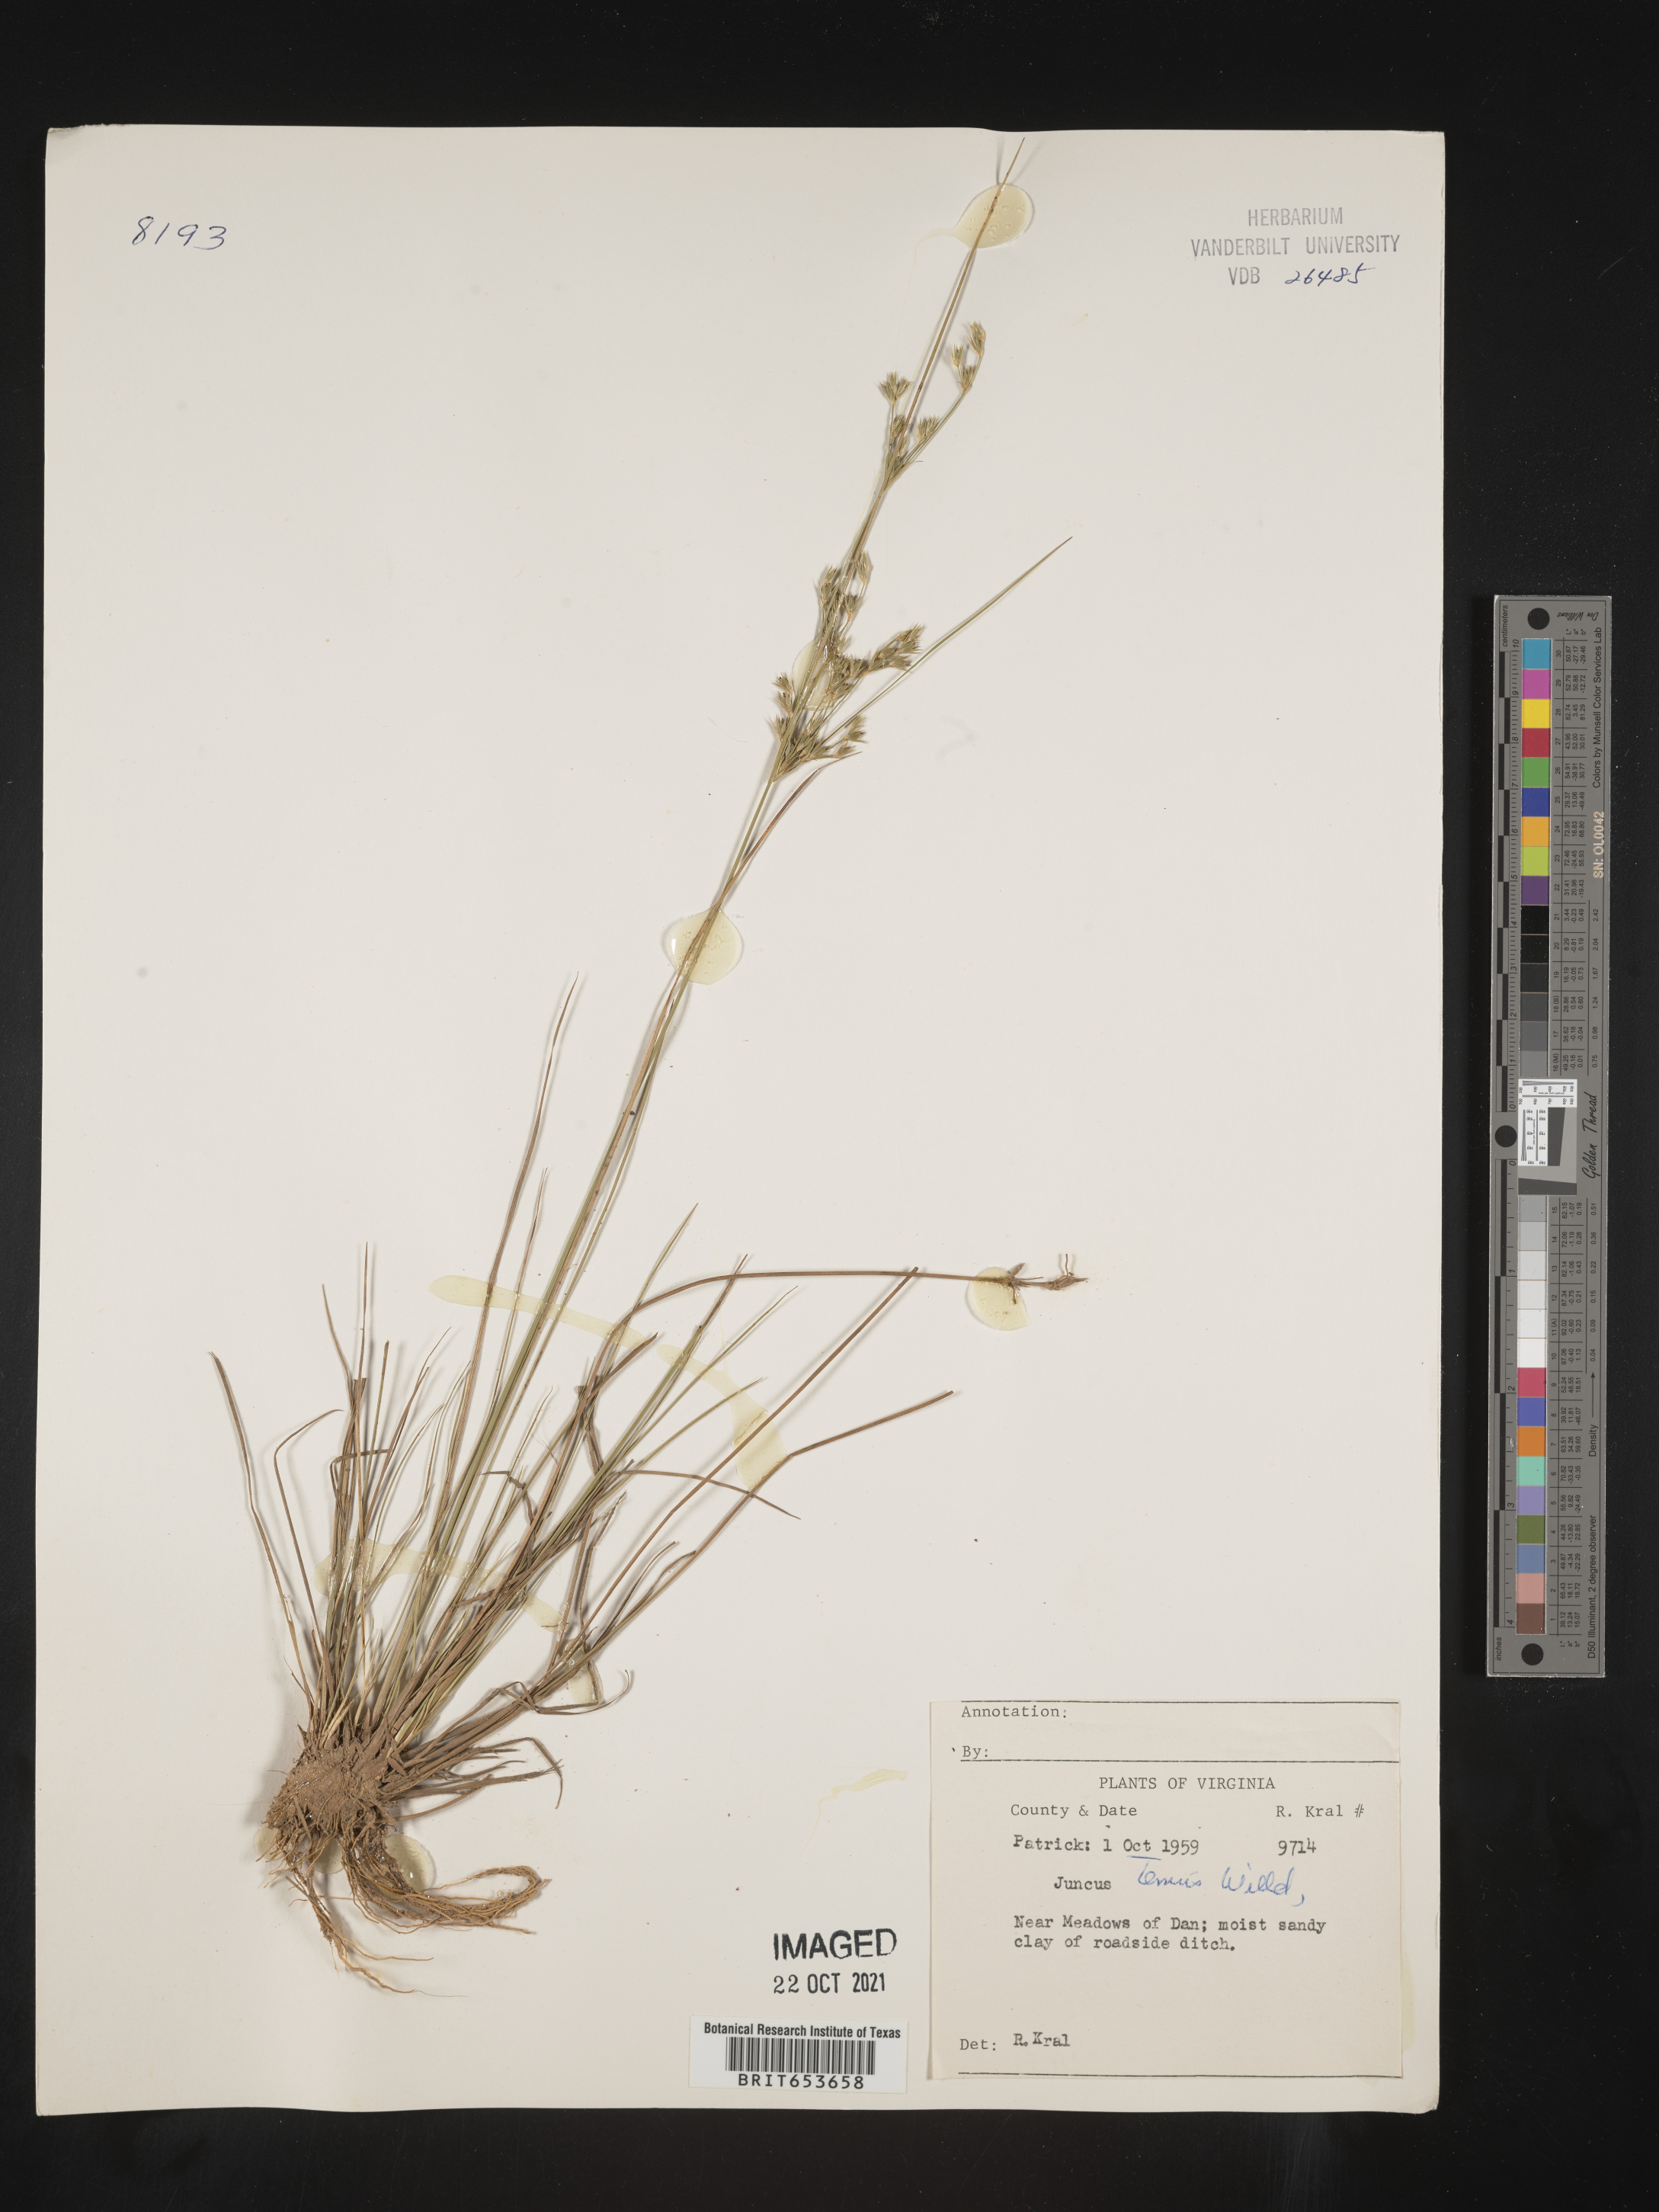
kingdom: Plantae
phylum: Tracheophyta
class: Liliopsida
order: Poales
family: Juncaceae
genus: Juncus
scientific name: Juncus tenuis
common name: Slender rush
